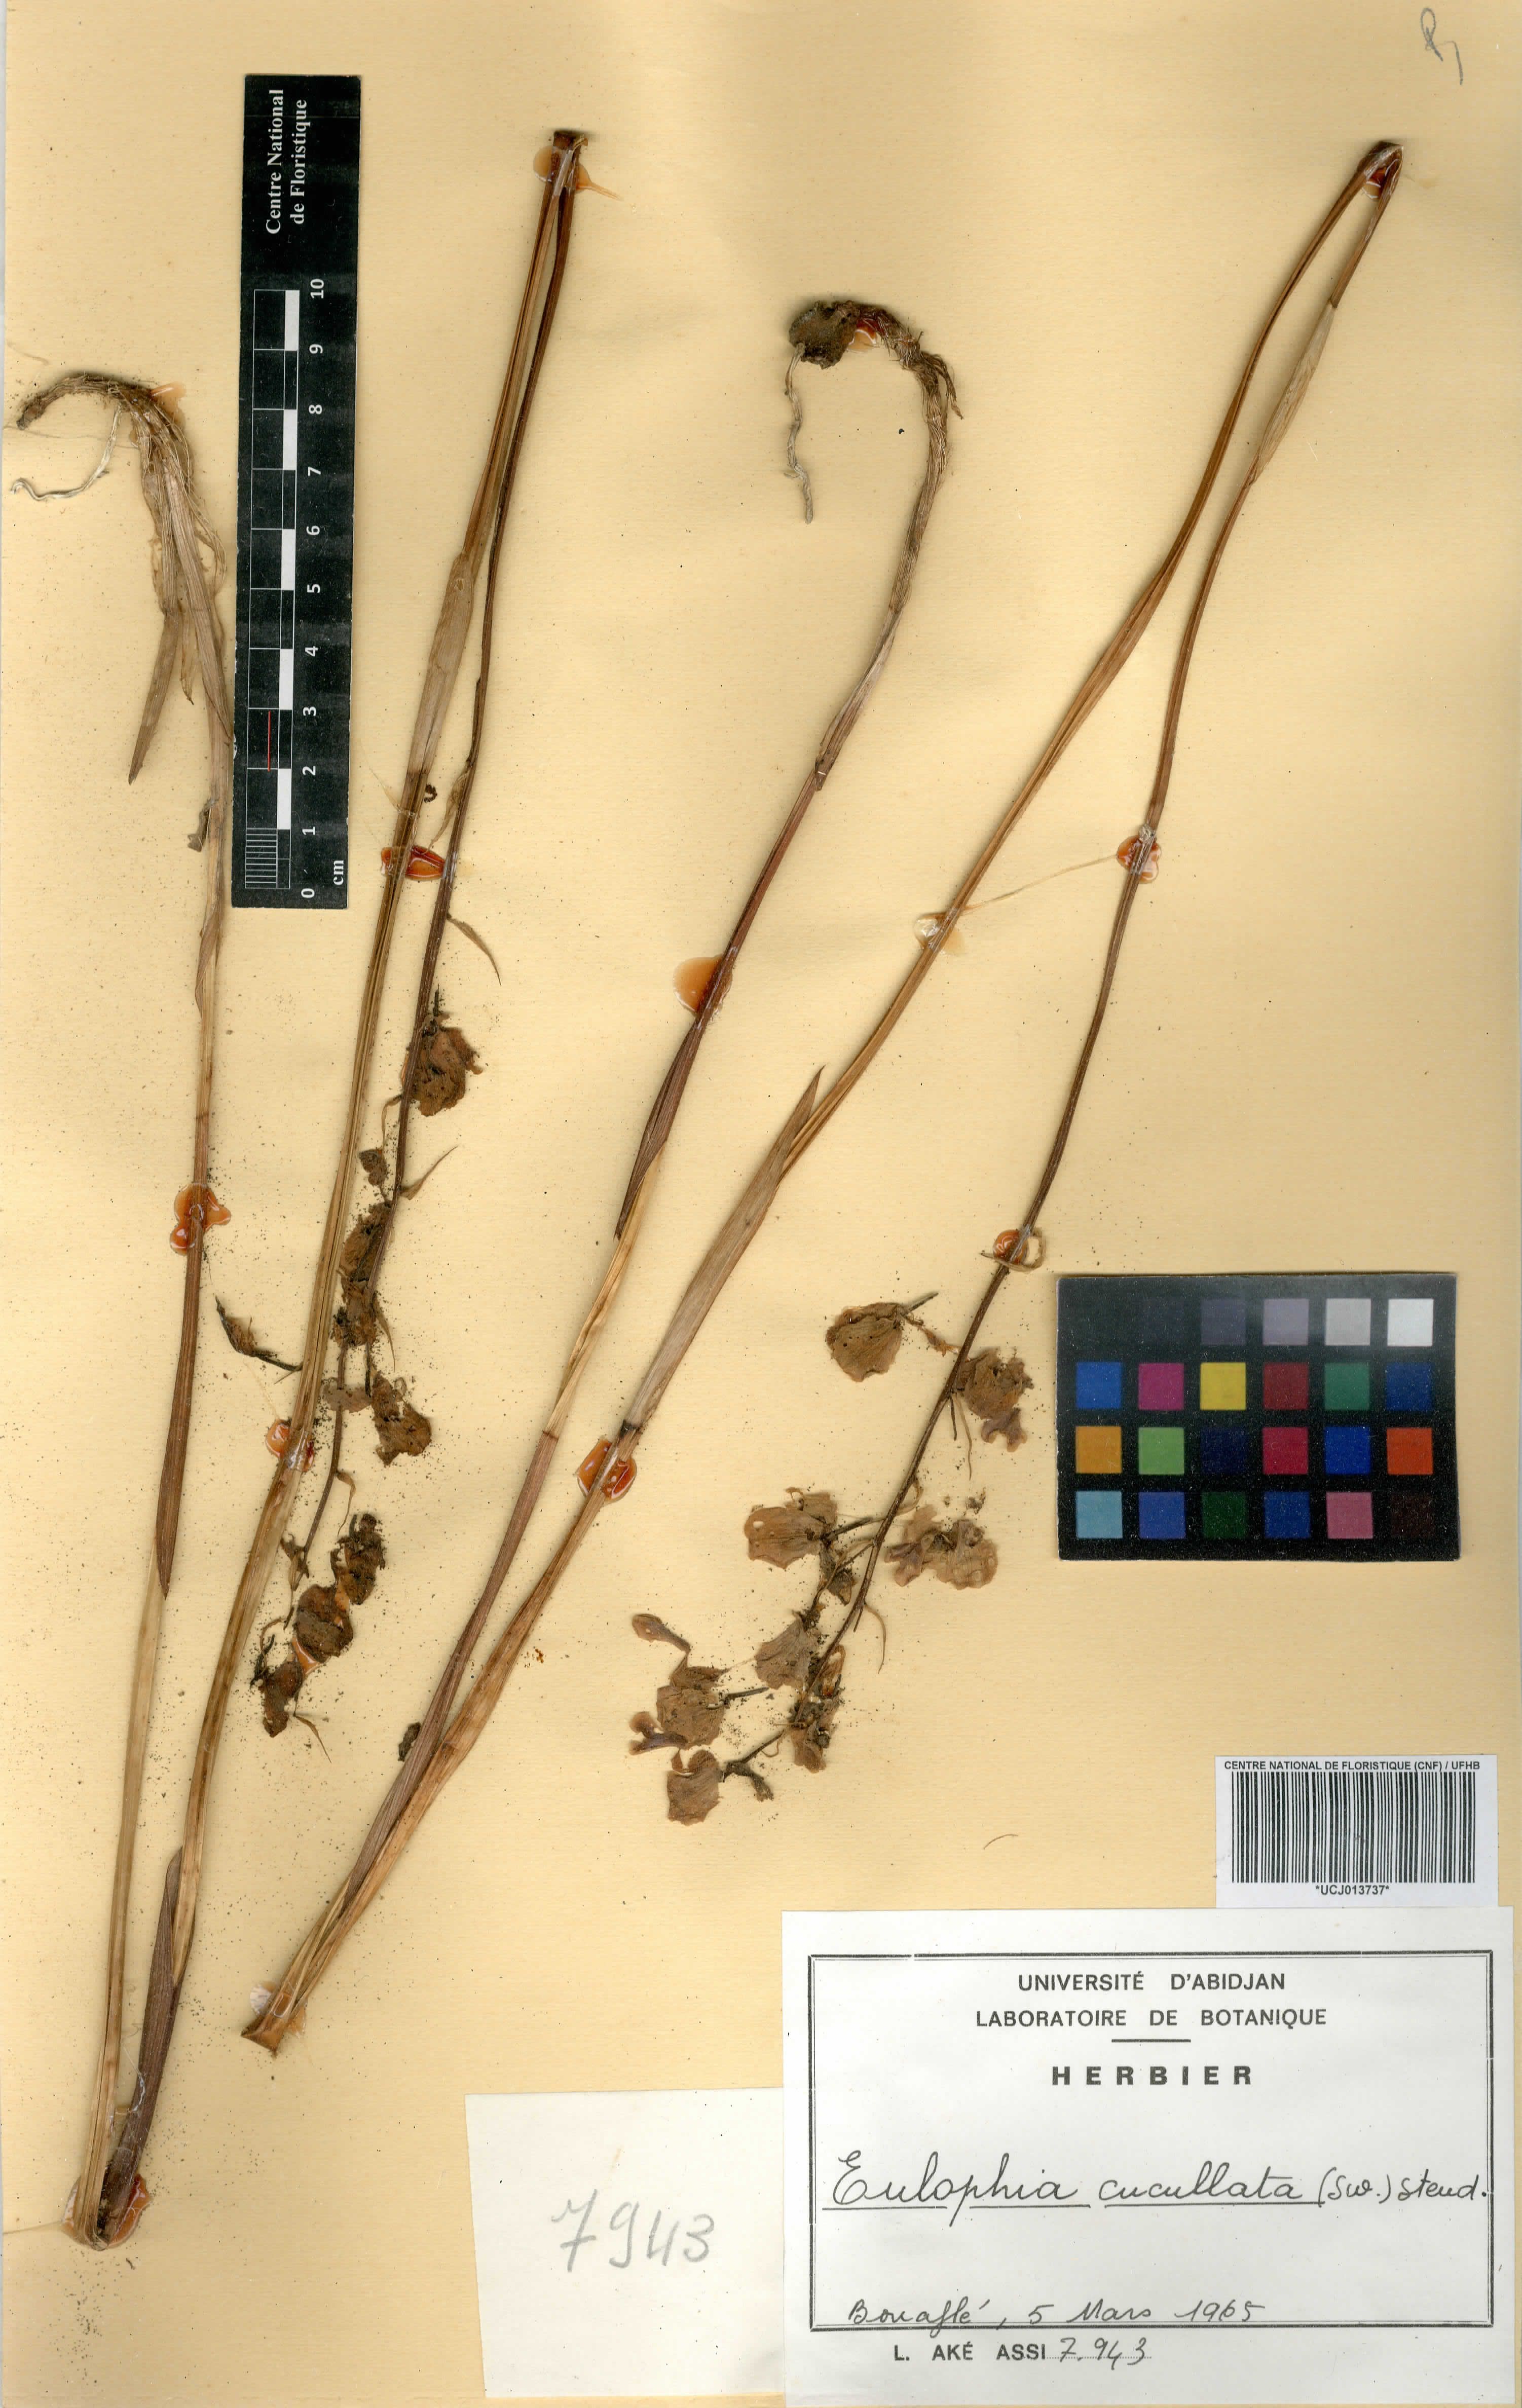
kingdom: Plantae
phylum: Tracheophyta
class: Liliopsida
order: Asparagales
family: Orchidaceae
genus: Eulophia
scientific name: Eulophia cucullata
